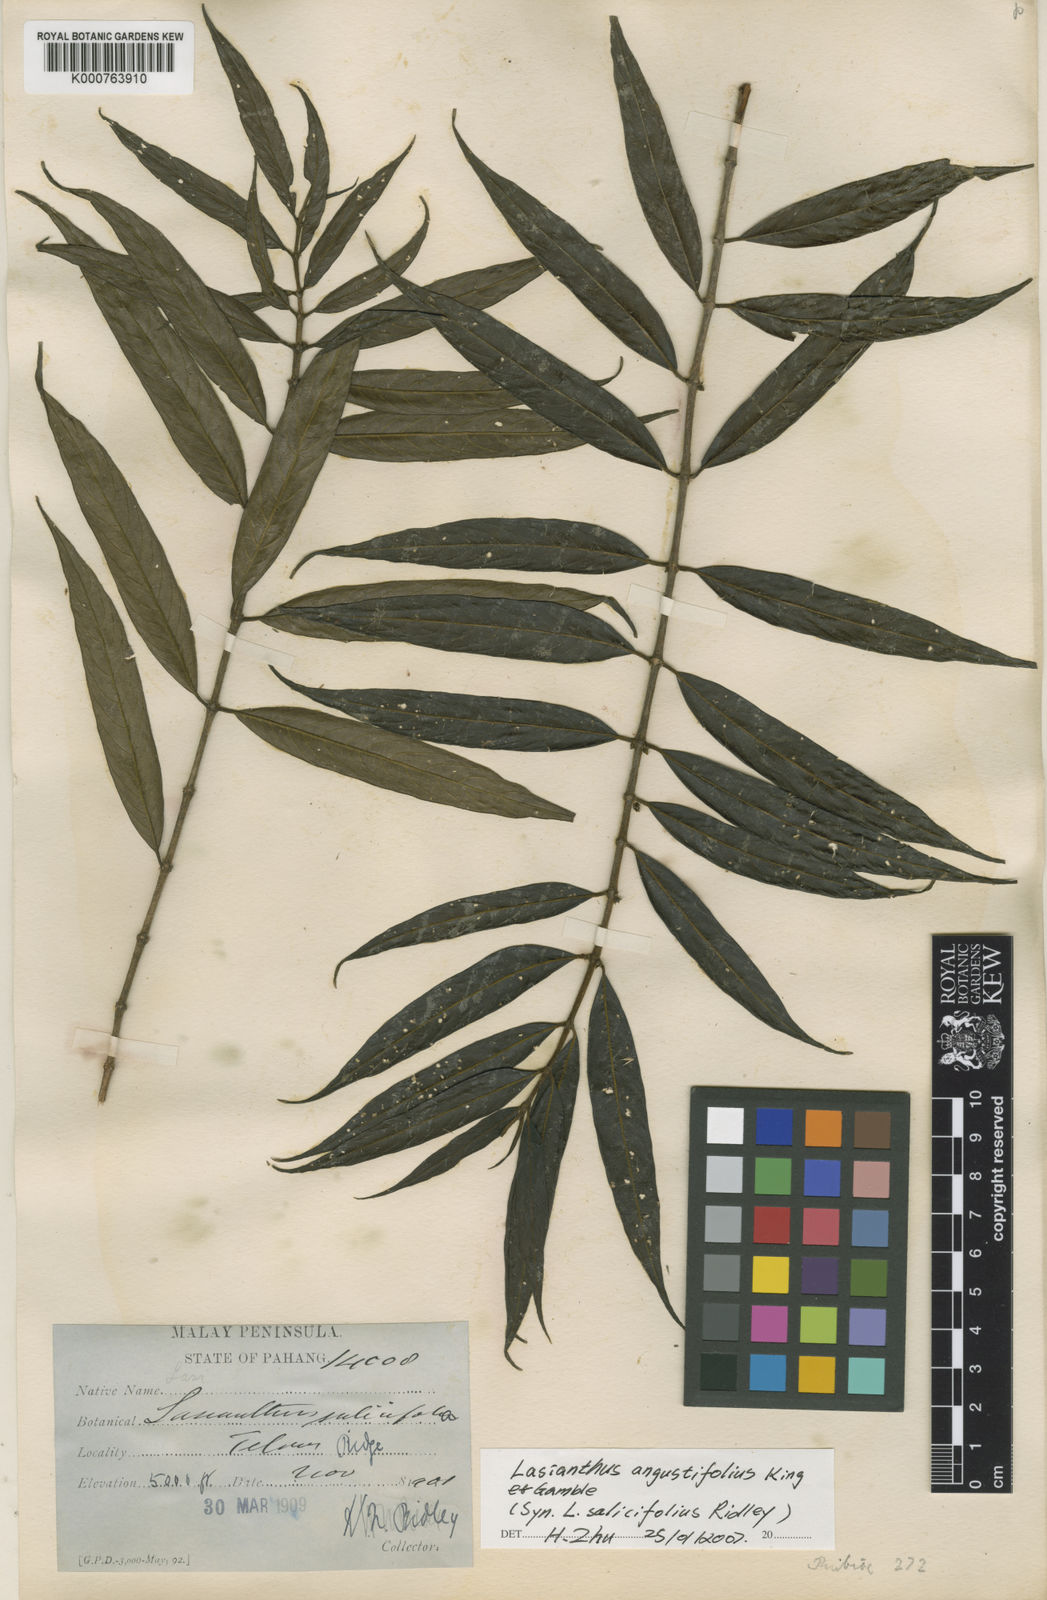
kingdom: Plantae
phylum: Tracheophyta
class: Magnoliopsida
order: Gentianales
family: Rubiaceae
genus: Lasianthus
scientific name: Lasianthus angustifolius
